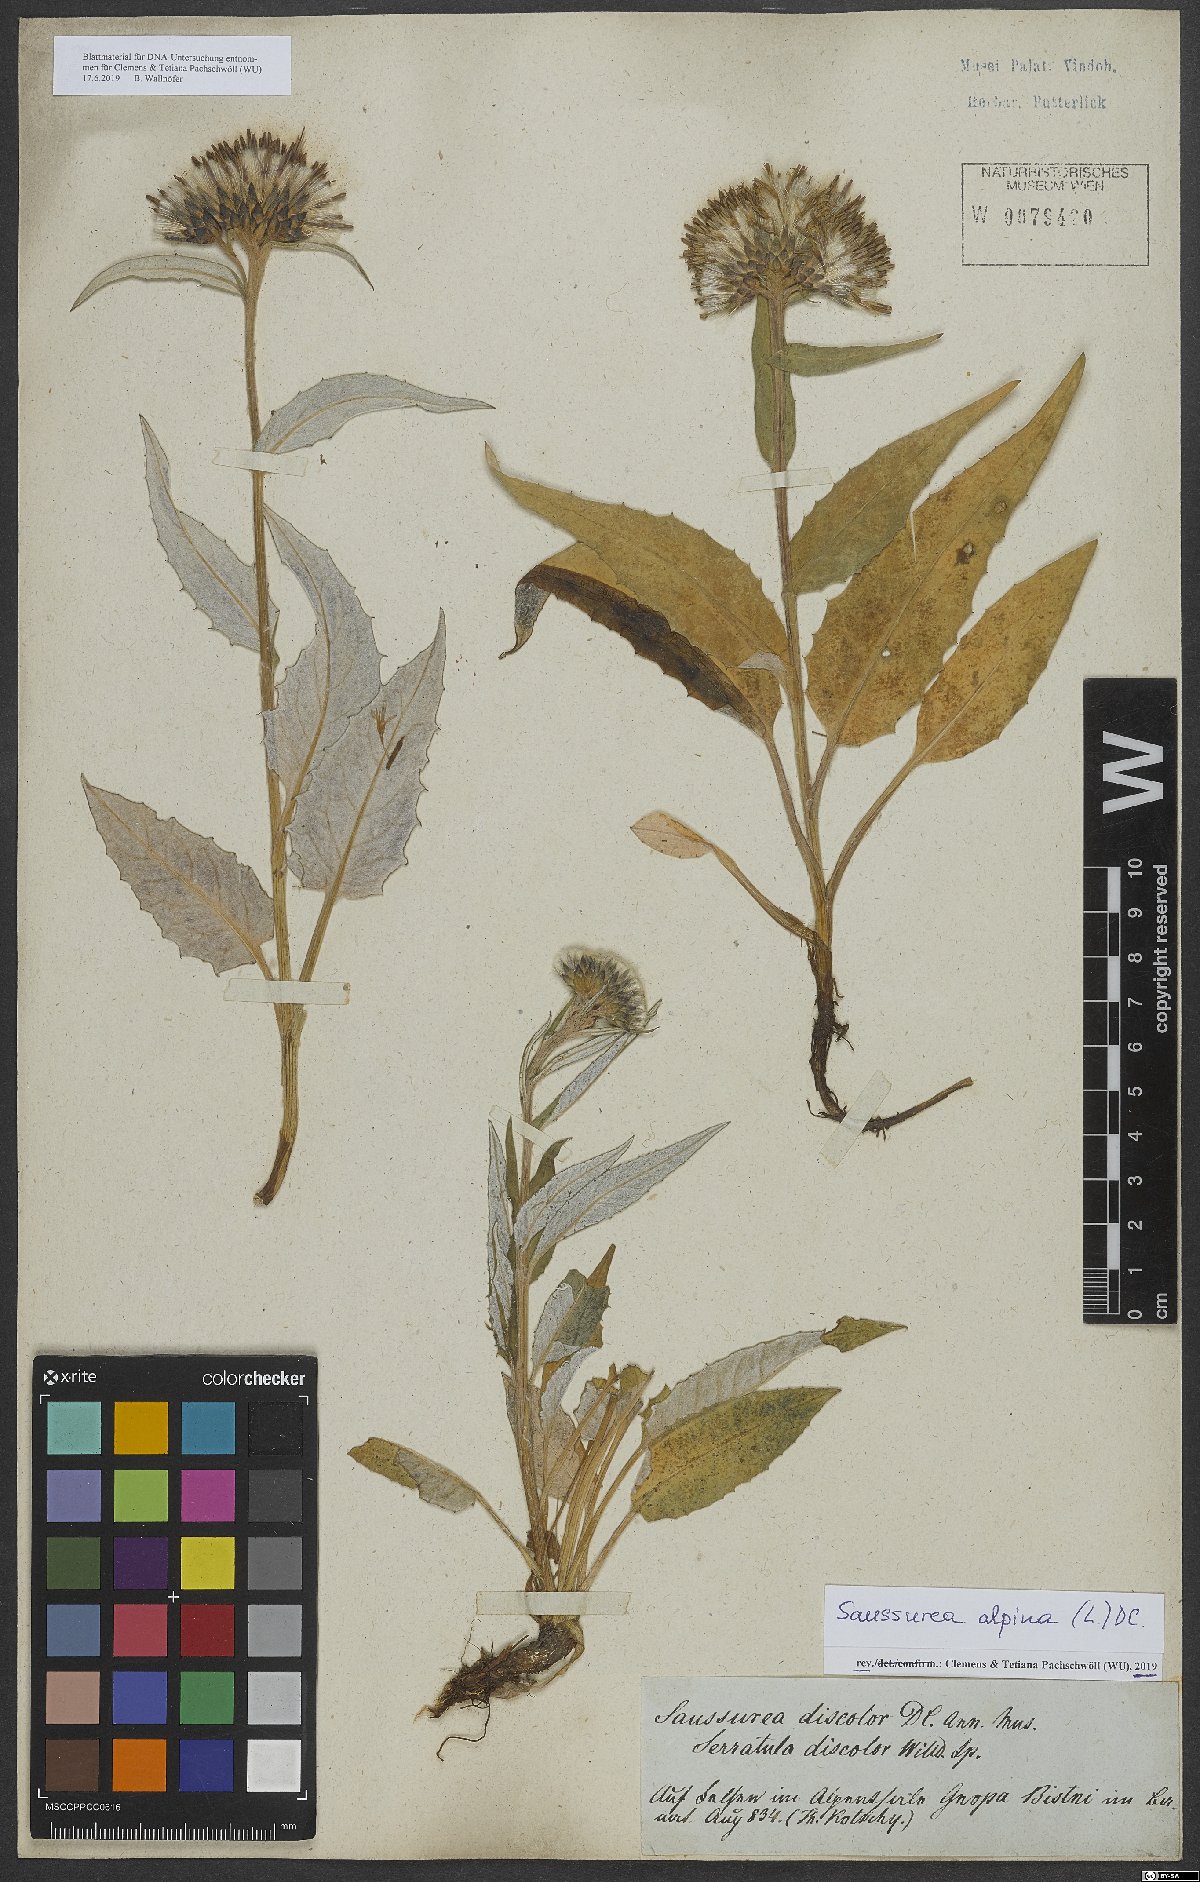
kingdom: Plantae
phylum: Tracheophyta
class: Magnoliopsida
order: Asterales
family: Asteraceae
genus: Saussurea
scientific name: Saussurea alpina
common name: Alpine saw-wort
